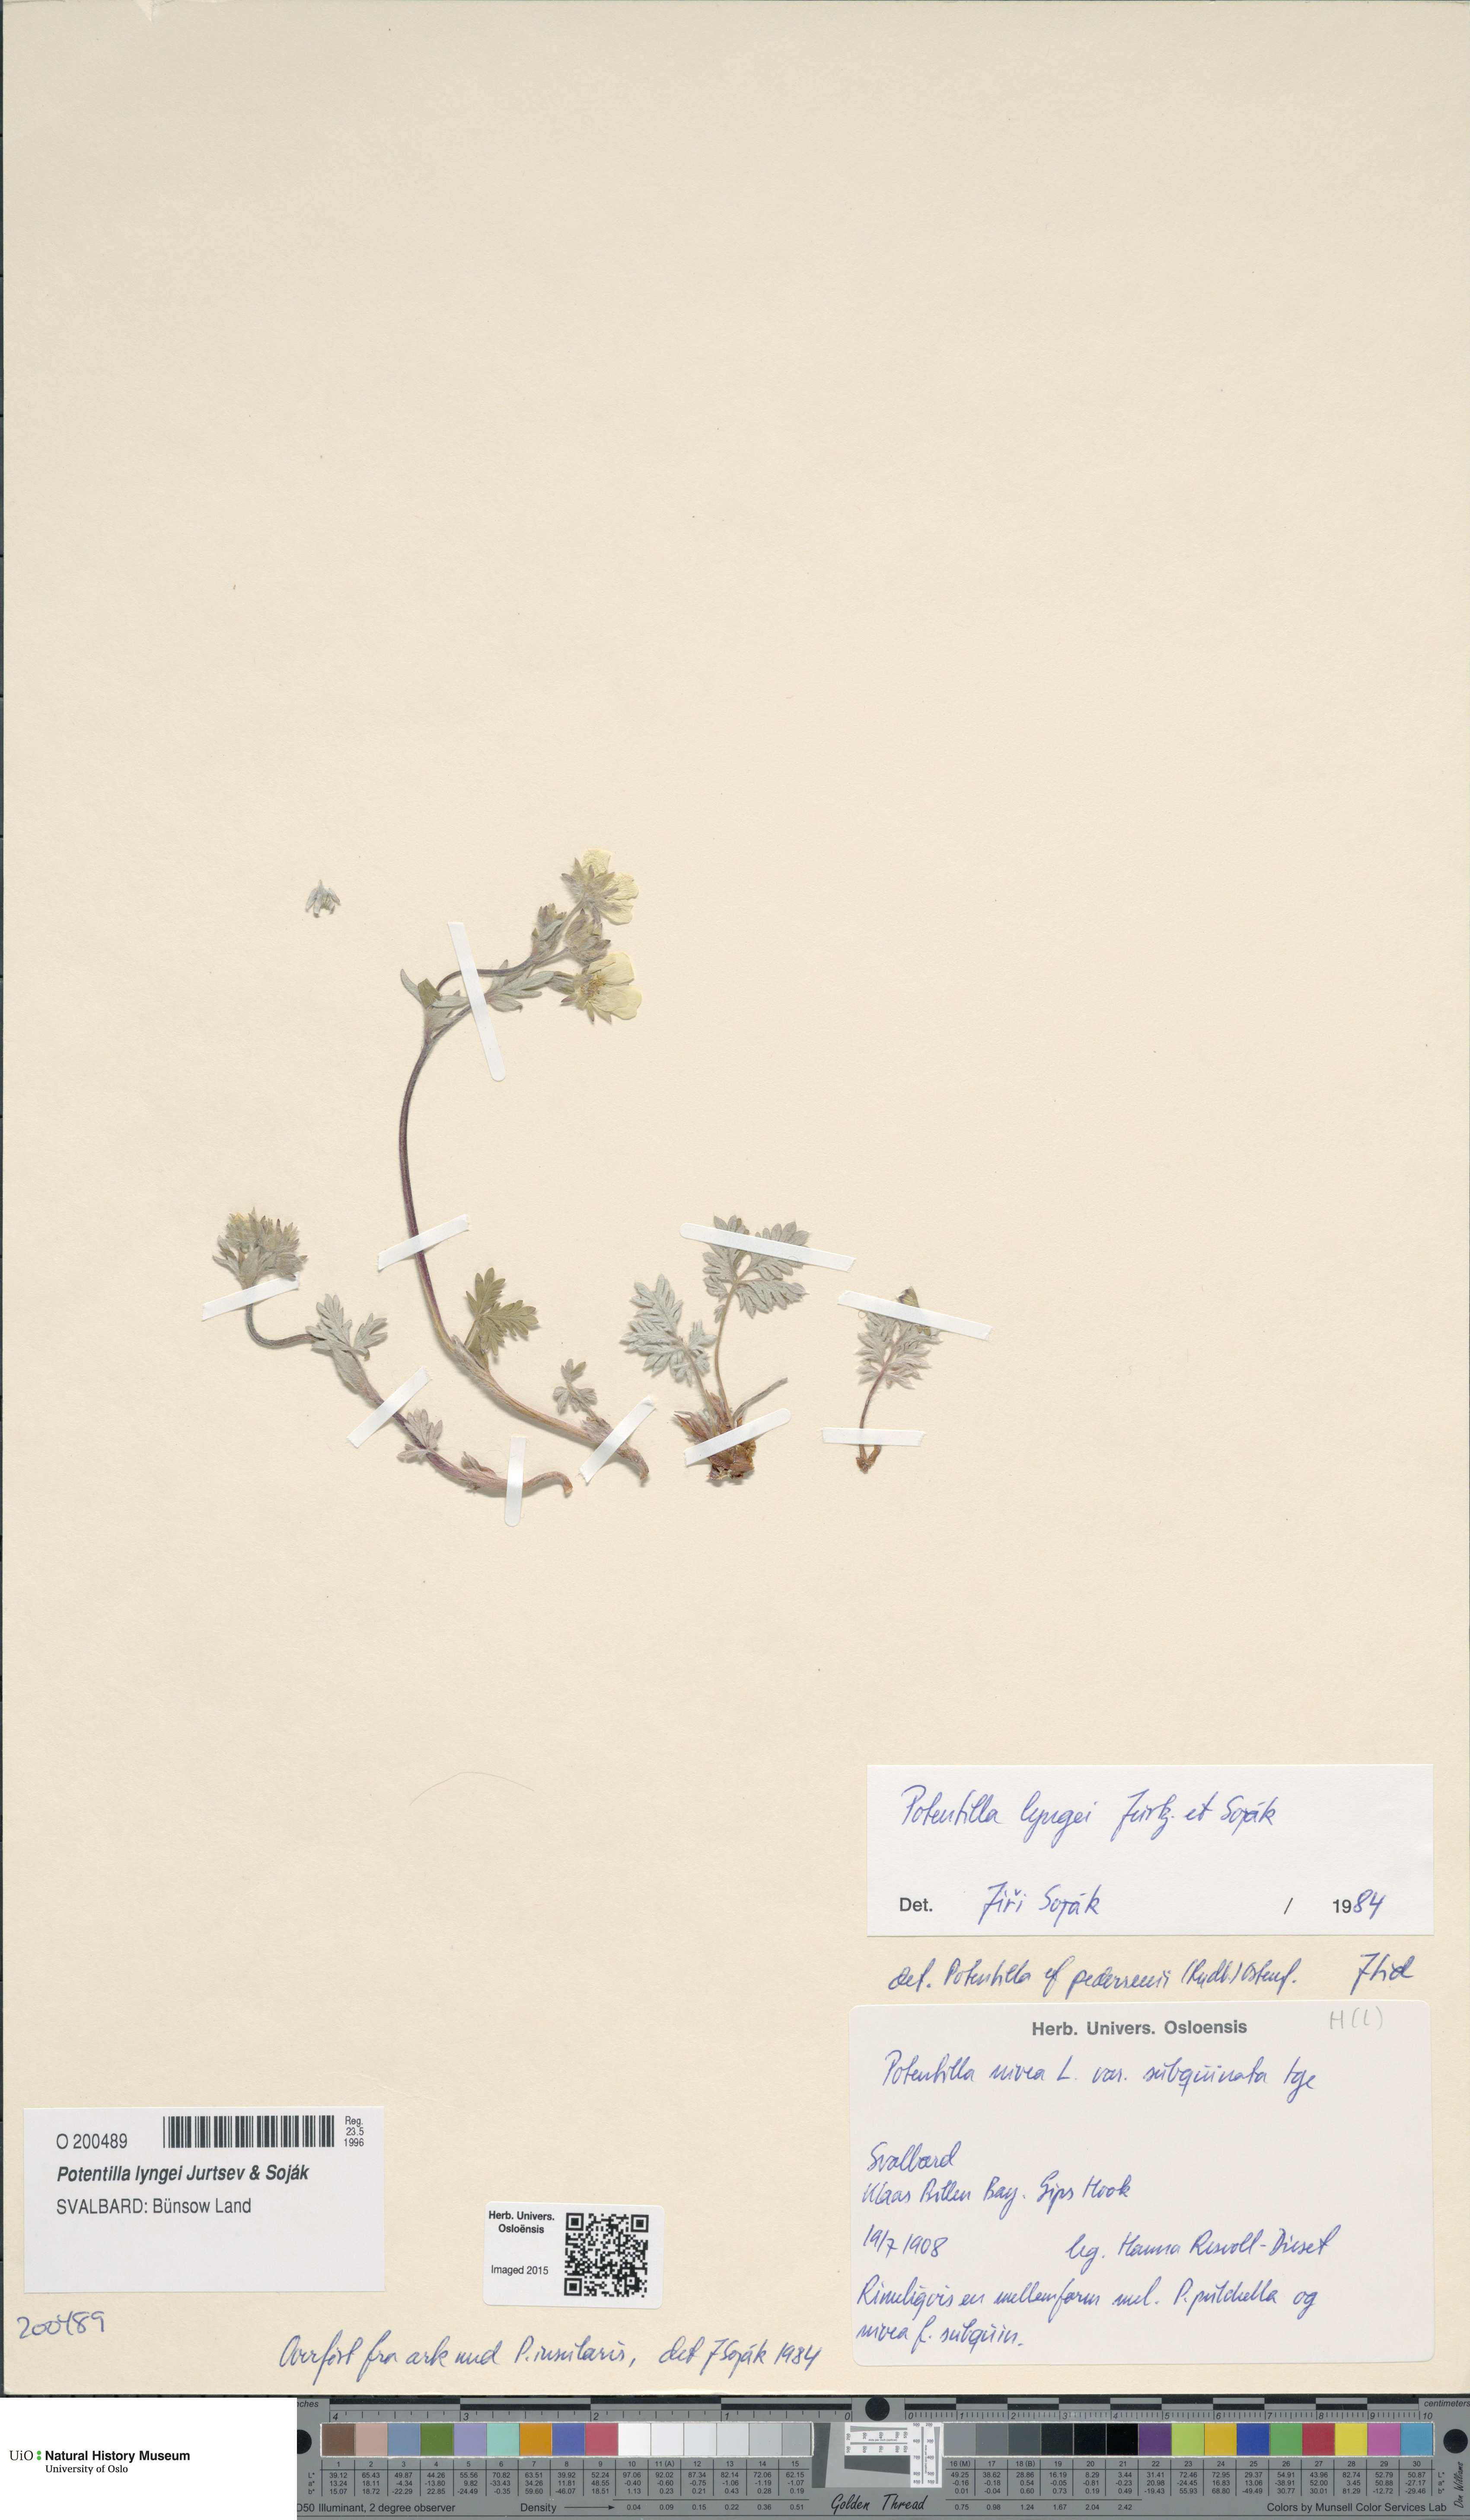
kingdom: Plantae
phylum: Tracheophyta
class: Magnoliopsida
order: Rosales
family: Rosaceae
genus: Potentilla
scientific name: Potentilla sommerfeltii
